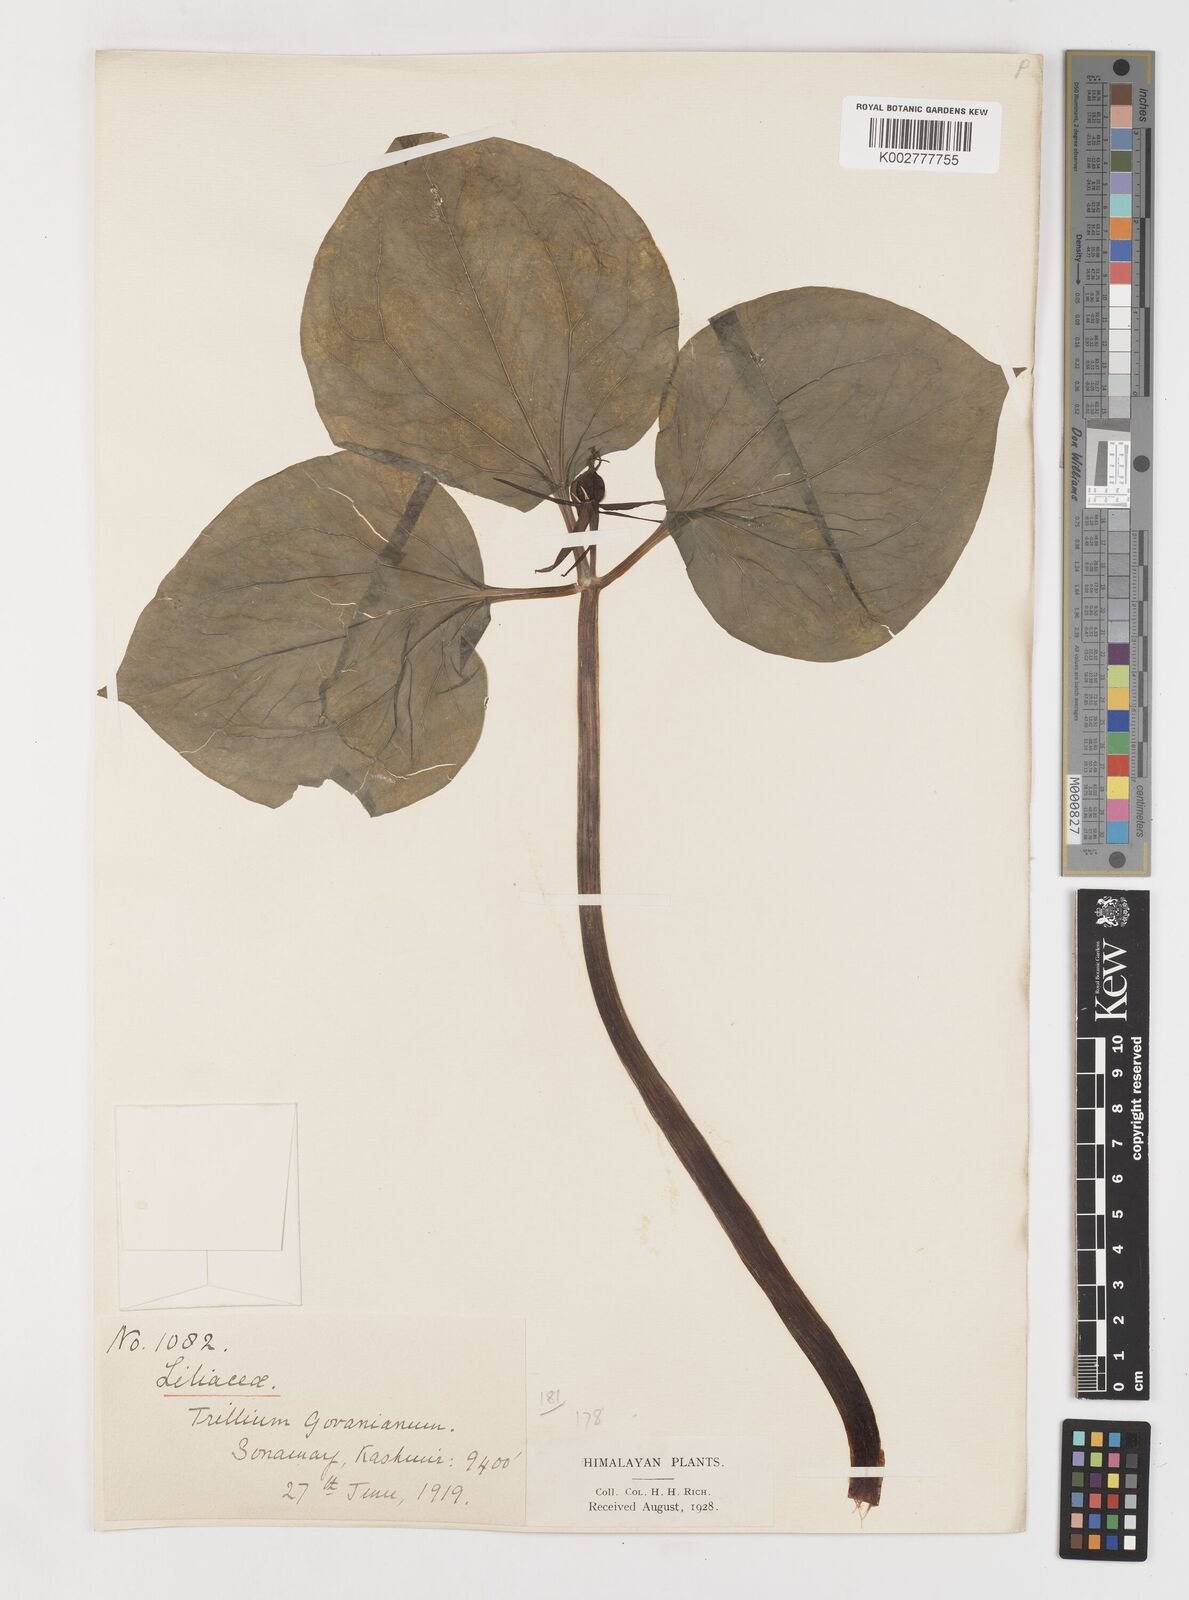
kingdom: Plantae
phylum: Tracheophyta
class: Liliopsida
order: Liliales
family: Melanthiaceae
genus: Trillium
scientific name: Trillium govanianum
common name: Himalayan trillium
